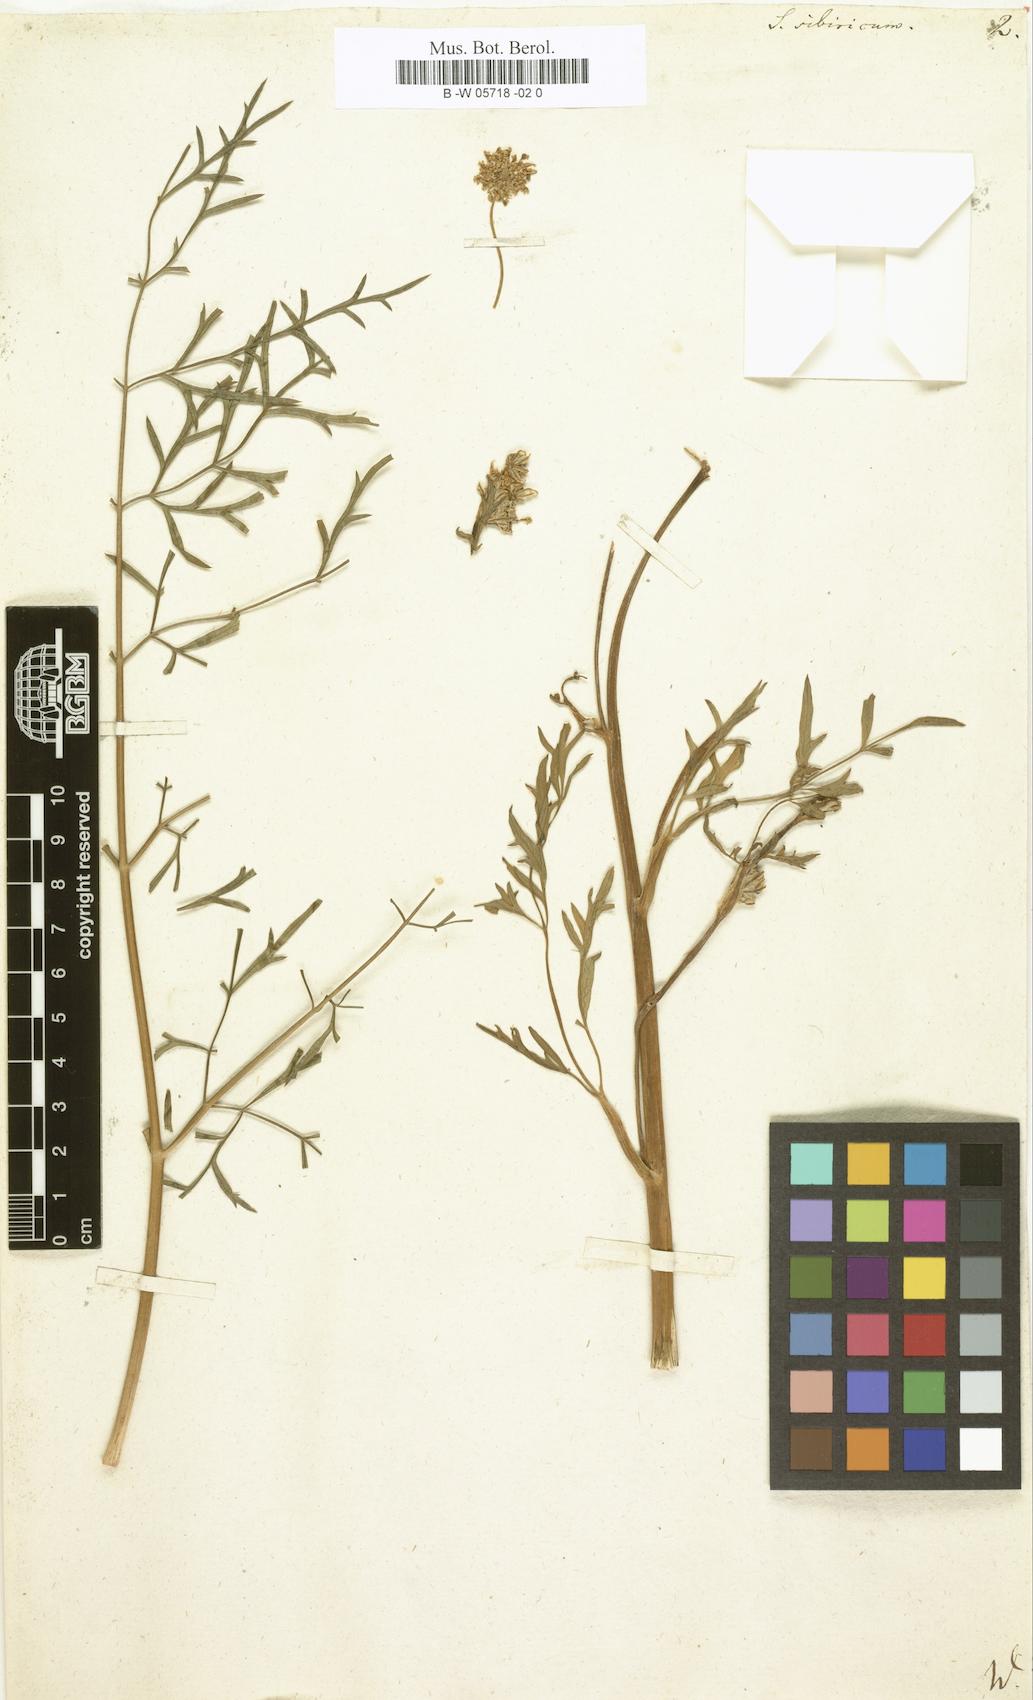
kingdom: Plantae
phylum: Tracheophyta
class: Magnoliopsida
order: Apiales
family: Apiaceae
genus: Pachypleurum
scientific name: Pachypleurum mutellinoides
